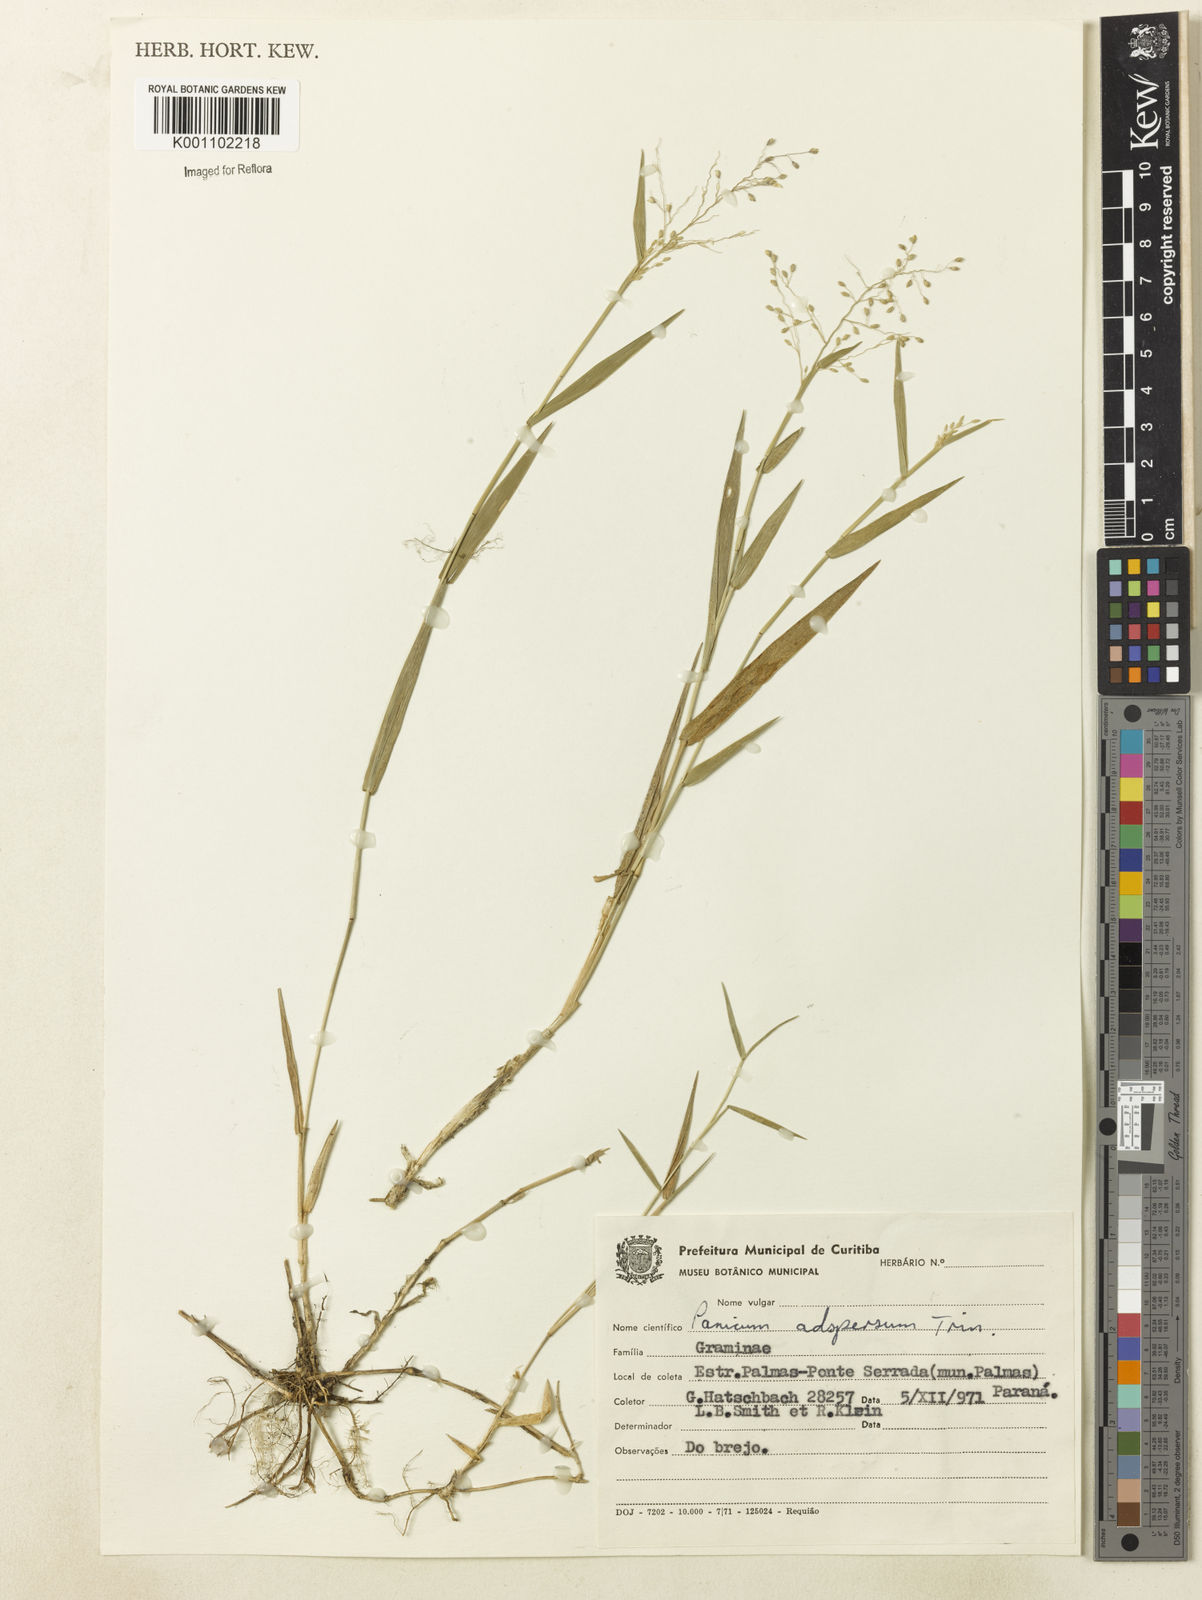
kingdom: Plantae
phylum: Tracheophyta
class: Liliopsida
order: Poales
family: Poaceae
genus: Dichanthelium
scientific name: Dichanthelium sabulorum
